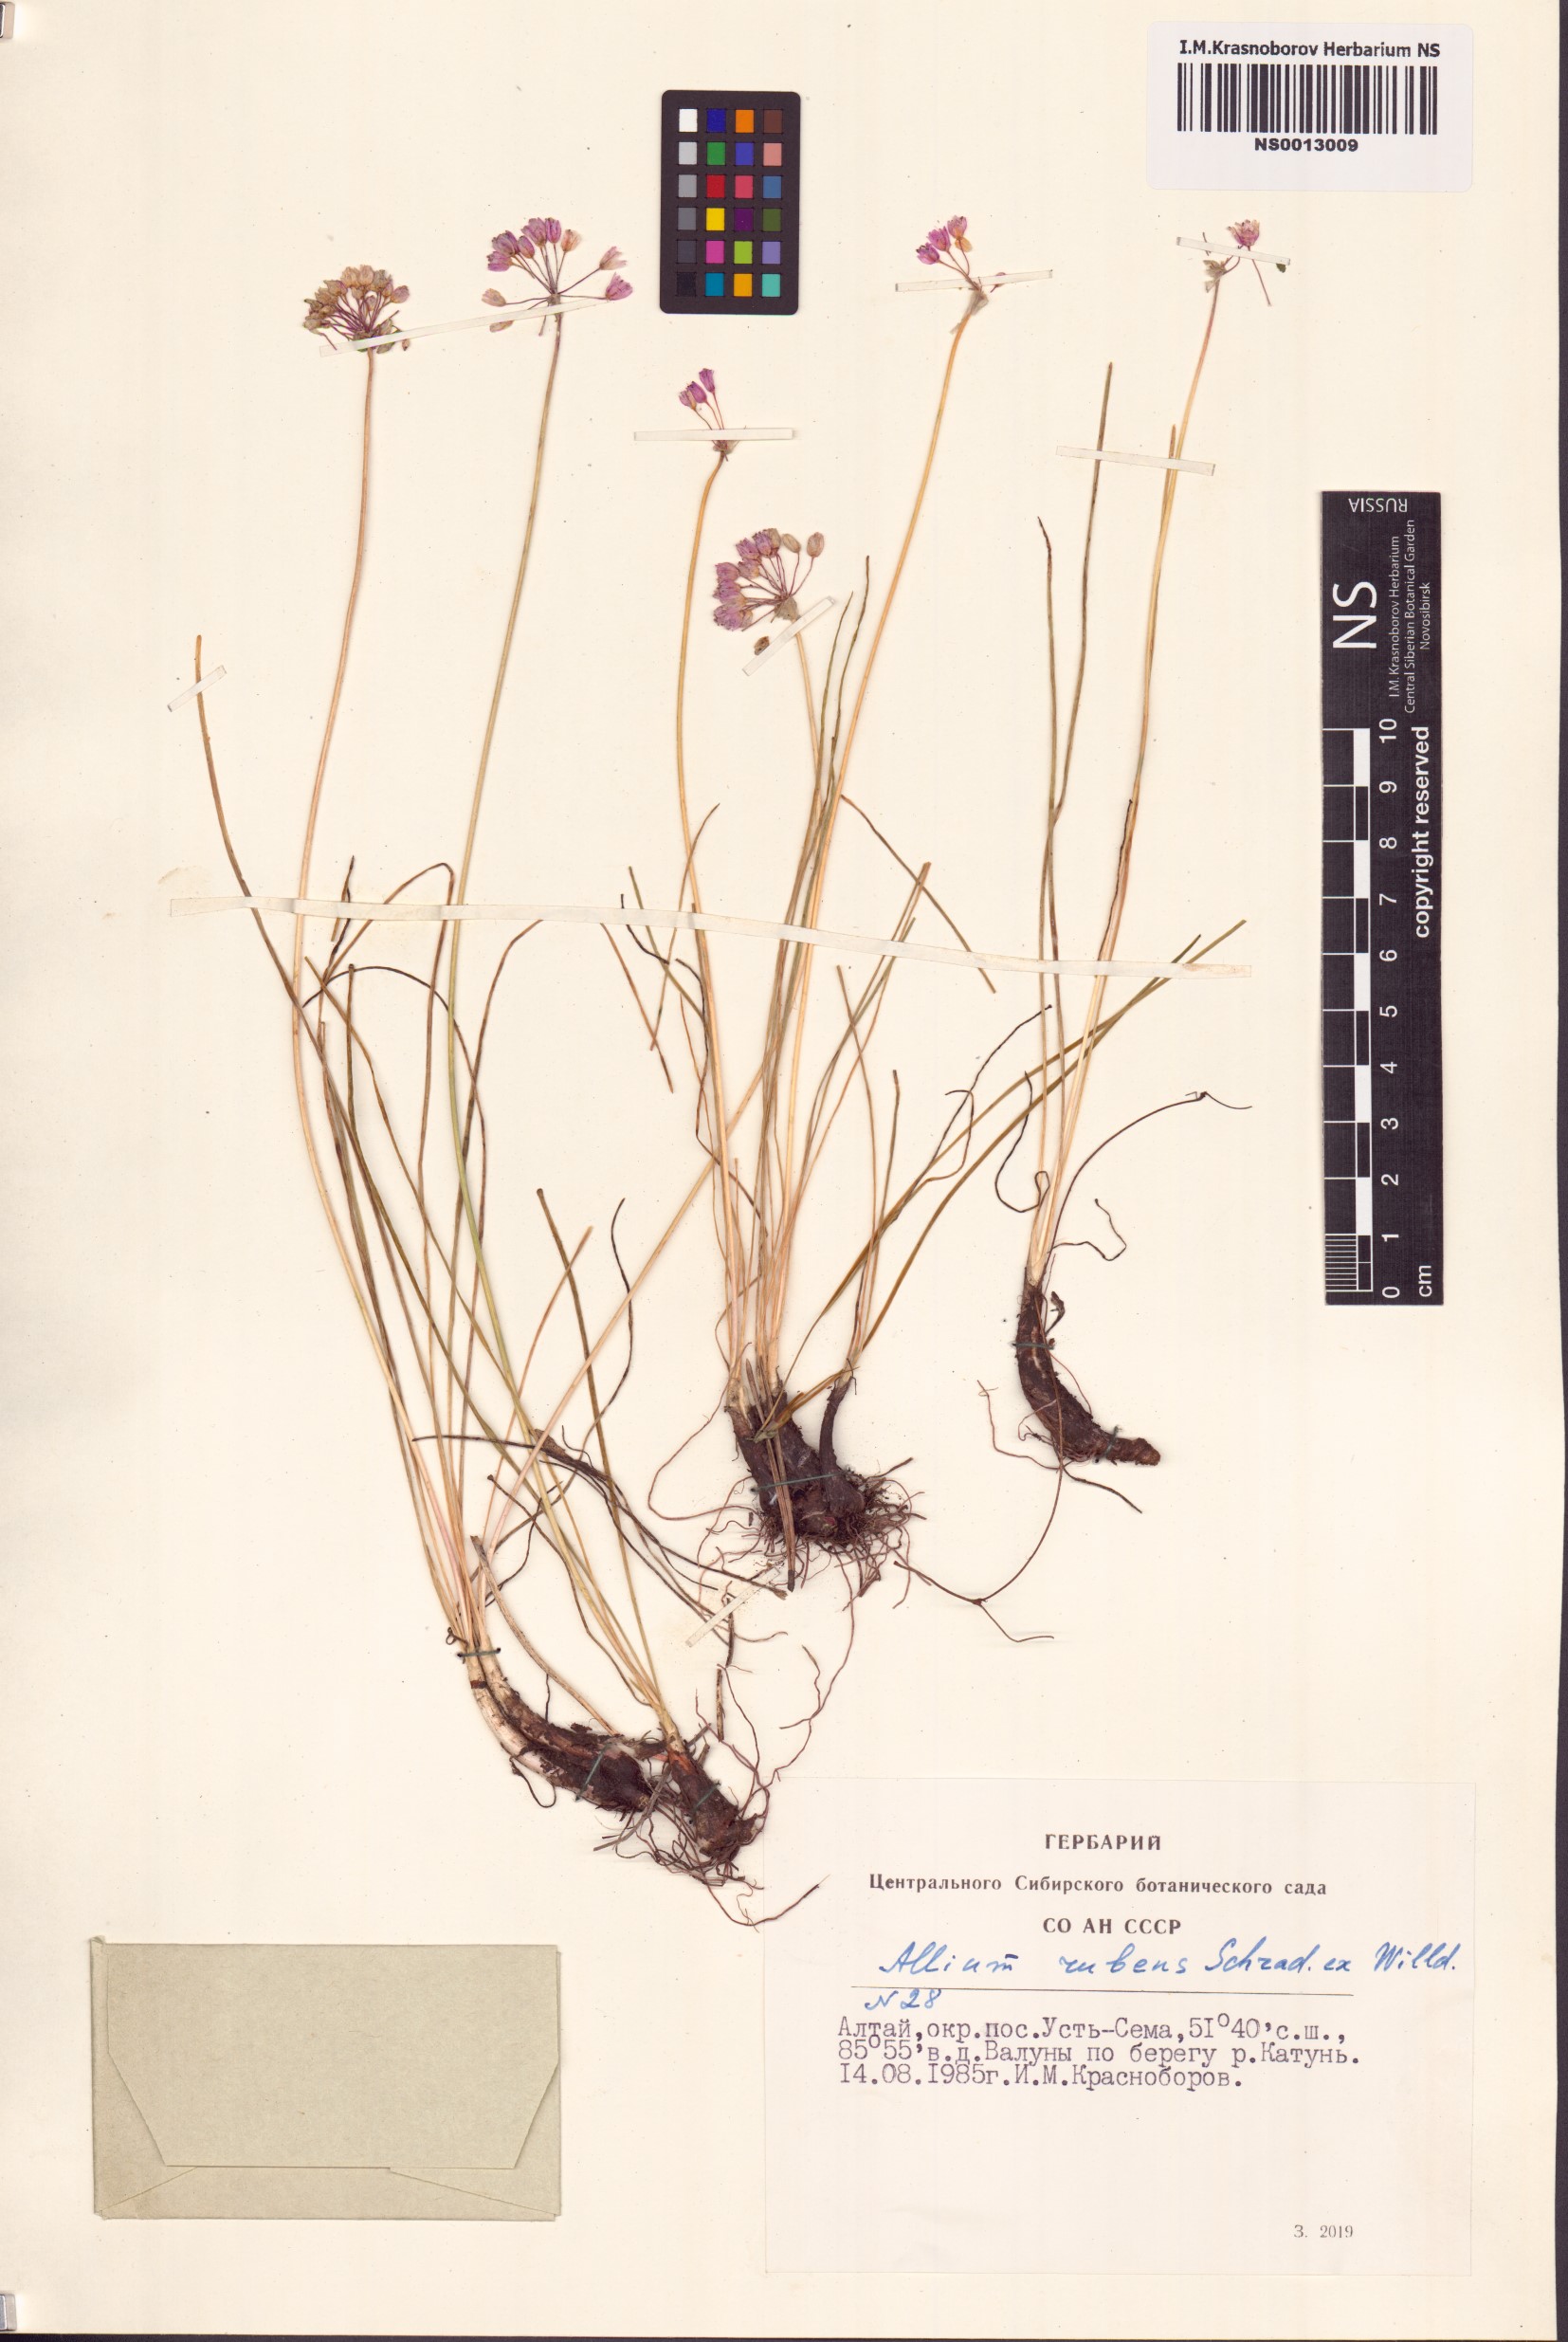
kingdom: Plantae
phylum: Tracheophyta
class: Liliopsida
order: Asparagales
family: Amaryllidaceae
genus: Allium
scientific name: Allium rubens
